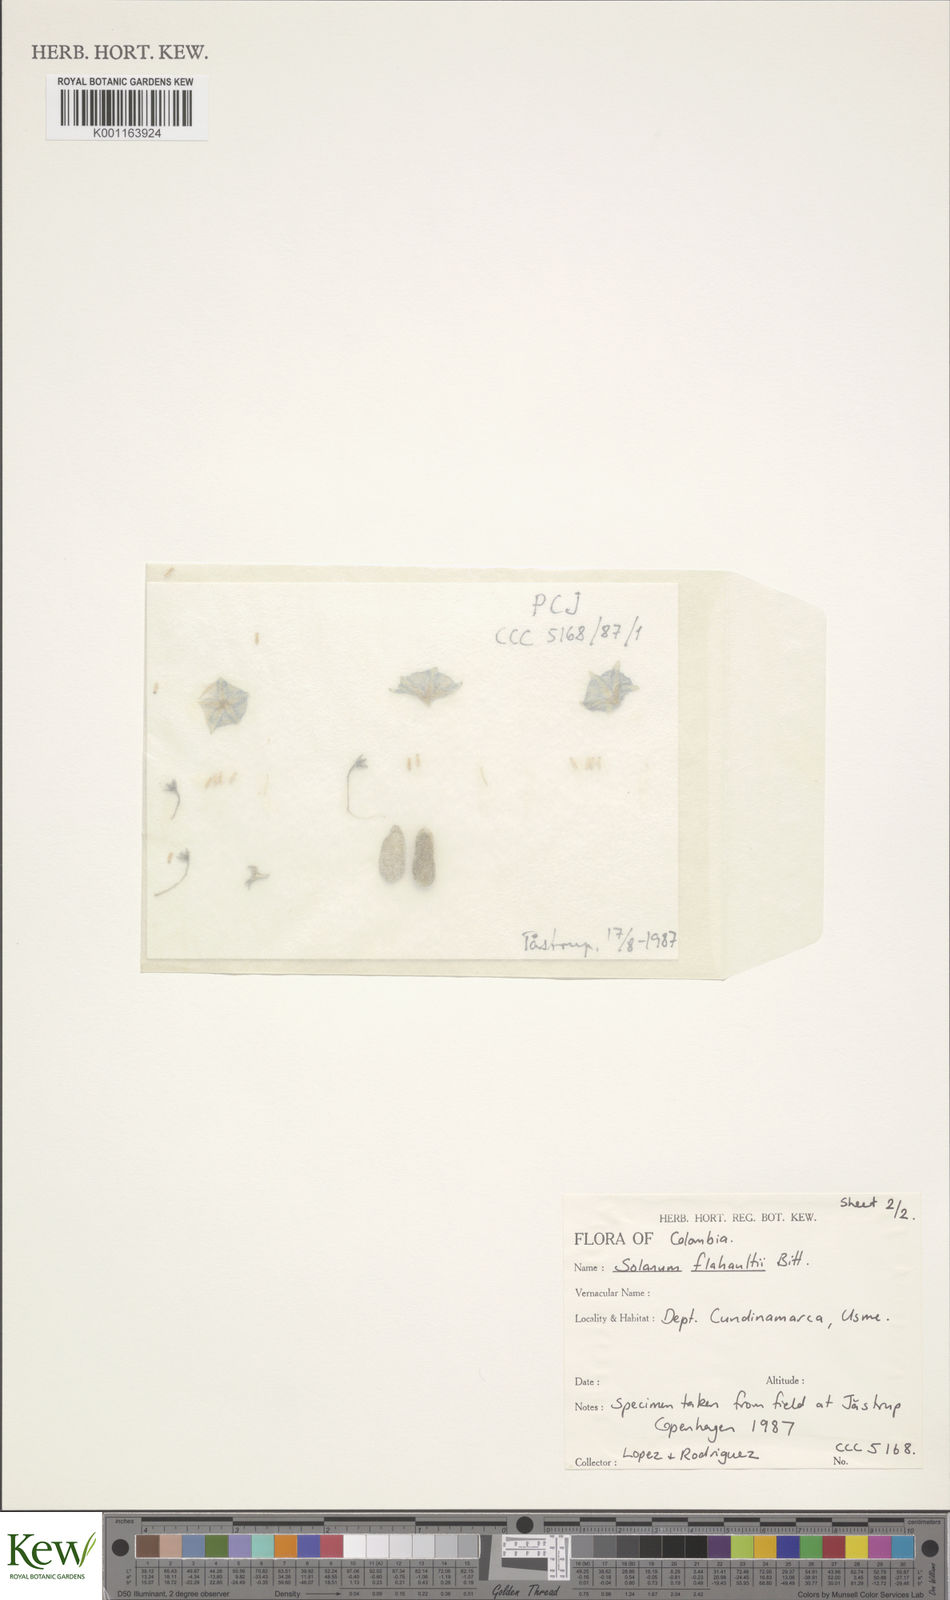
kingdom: Plantae
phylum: Tracheophyta
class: Magnoliopsida
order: Solanales
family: Solanaceae
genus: Solanum
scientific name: Solanum flahaultii
